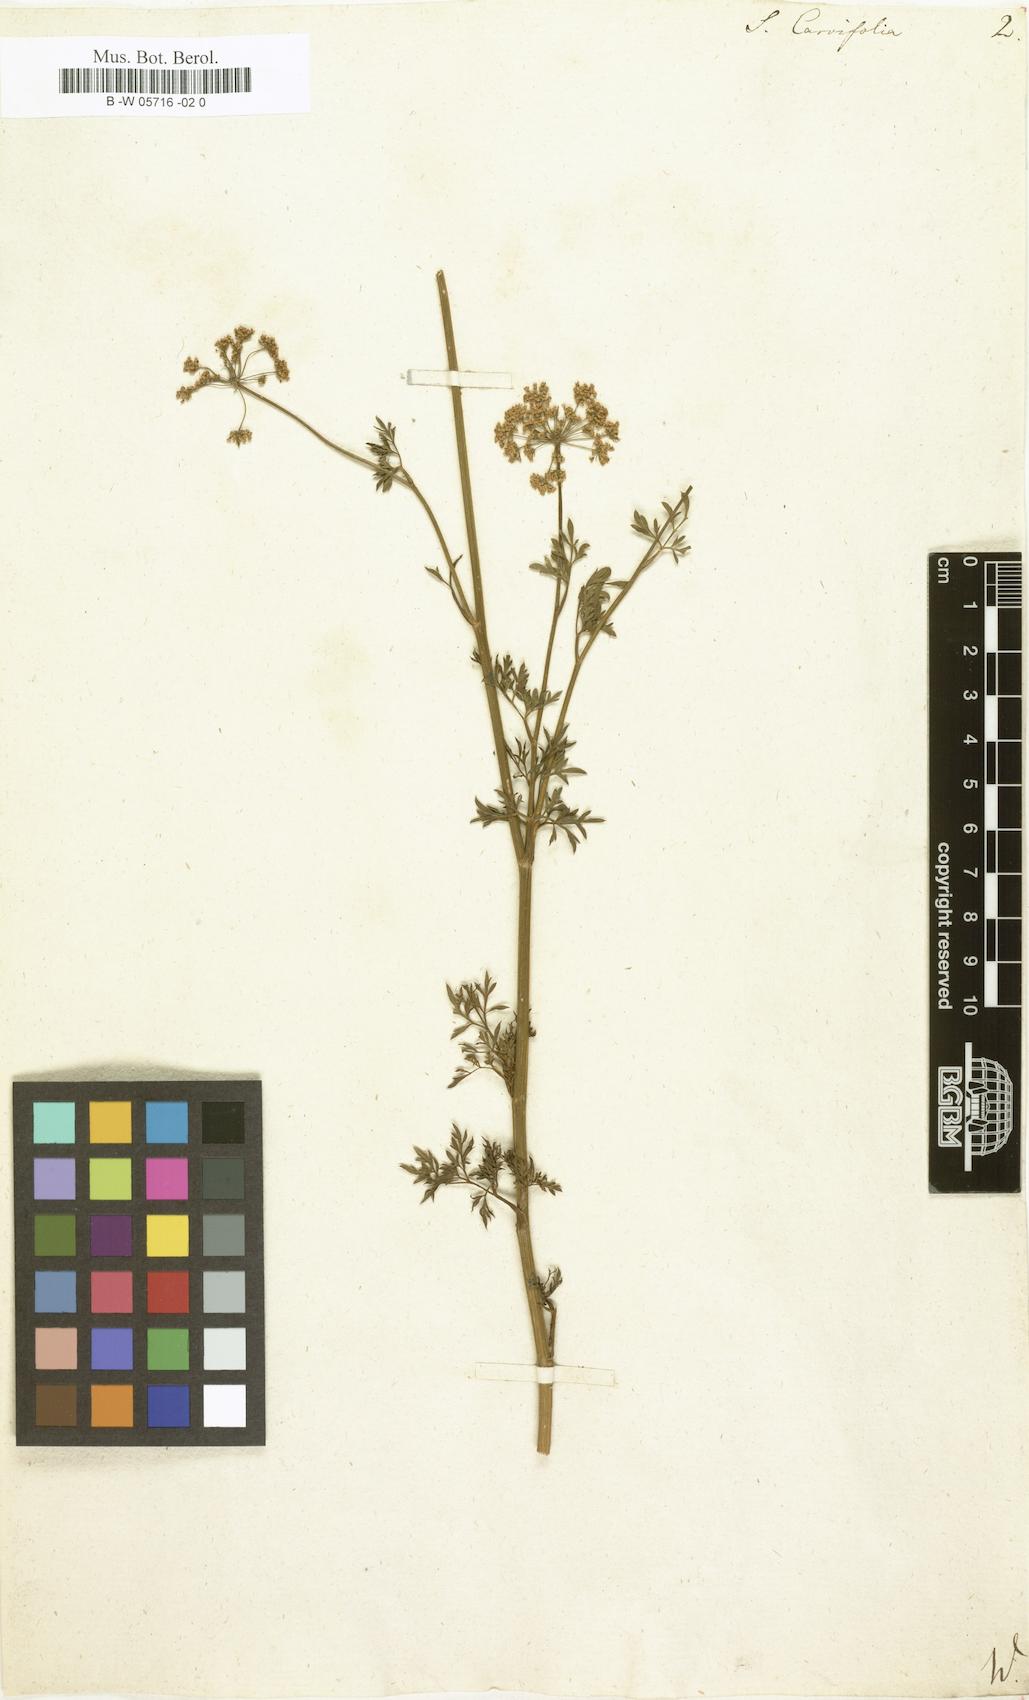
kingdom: Plantae
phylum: Tracheophyta
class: Magnoliopsida
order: Apiales
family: Apiaceae
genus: Selinum
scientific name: Selinum carvifolia
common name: Cambridge milk-parsley
